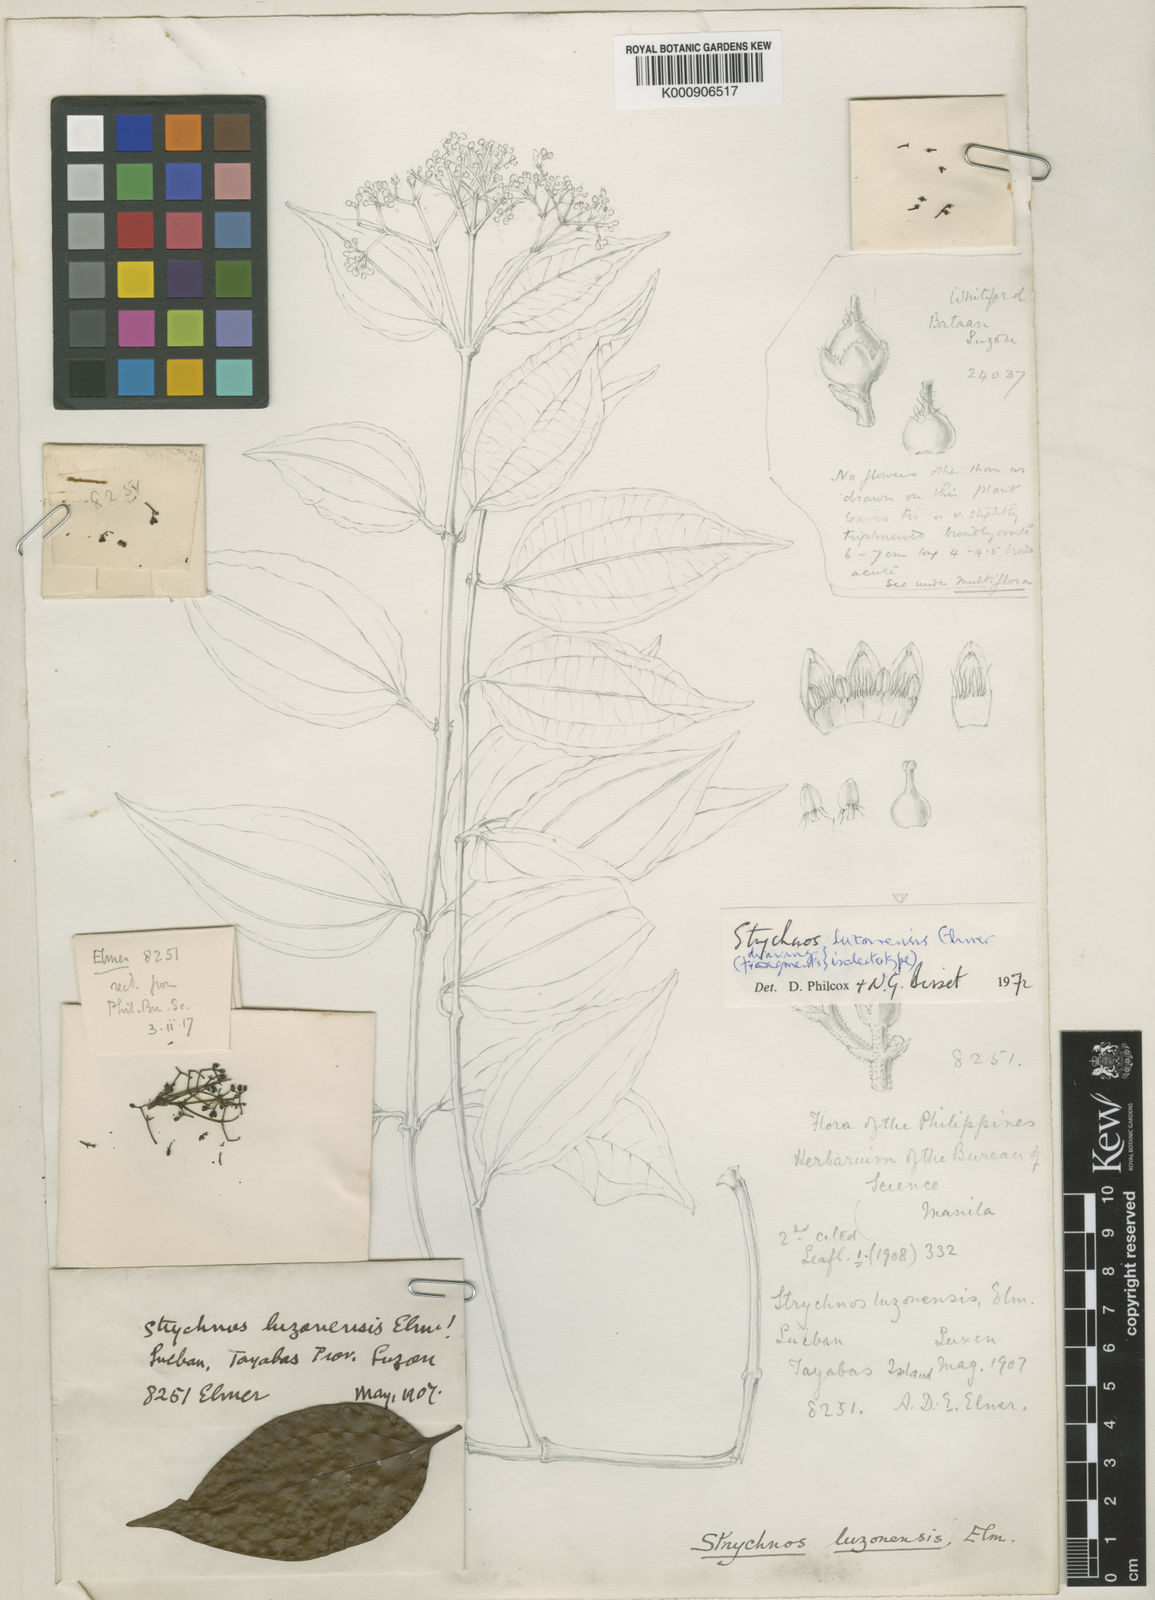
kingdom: Plantae
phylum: Tracheophyta
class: Magnoliopsida
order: Gentianales
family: Loganiaceae
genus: Strychnos
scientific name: Strychnos luzonensis
